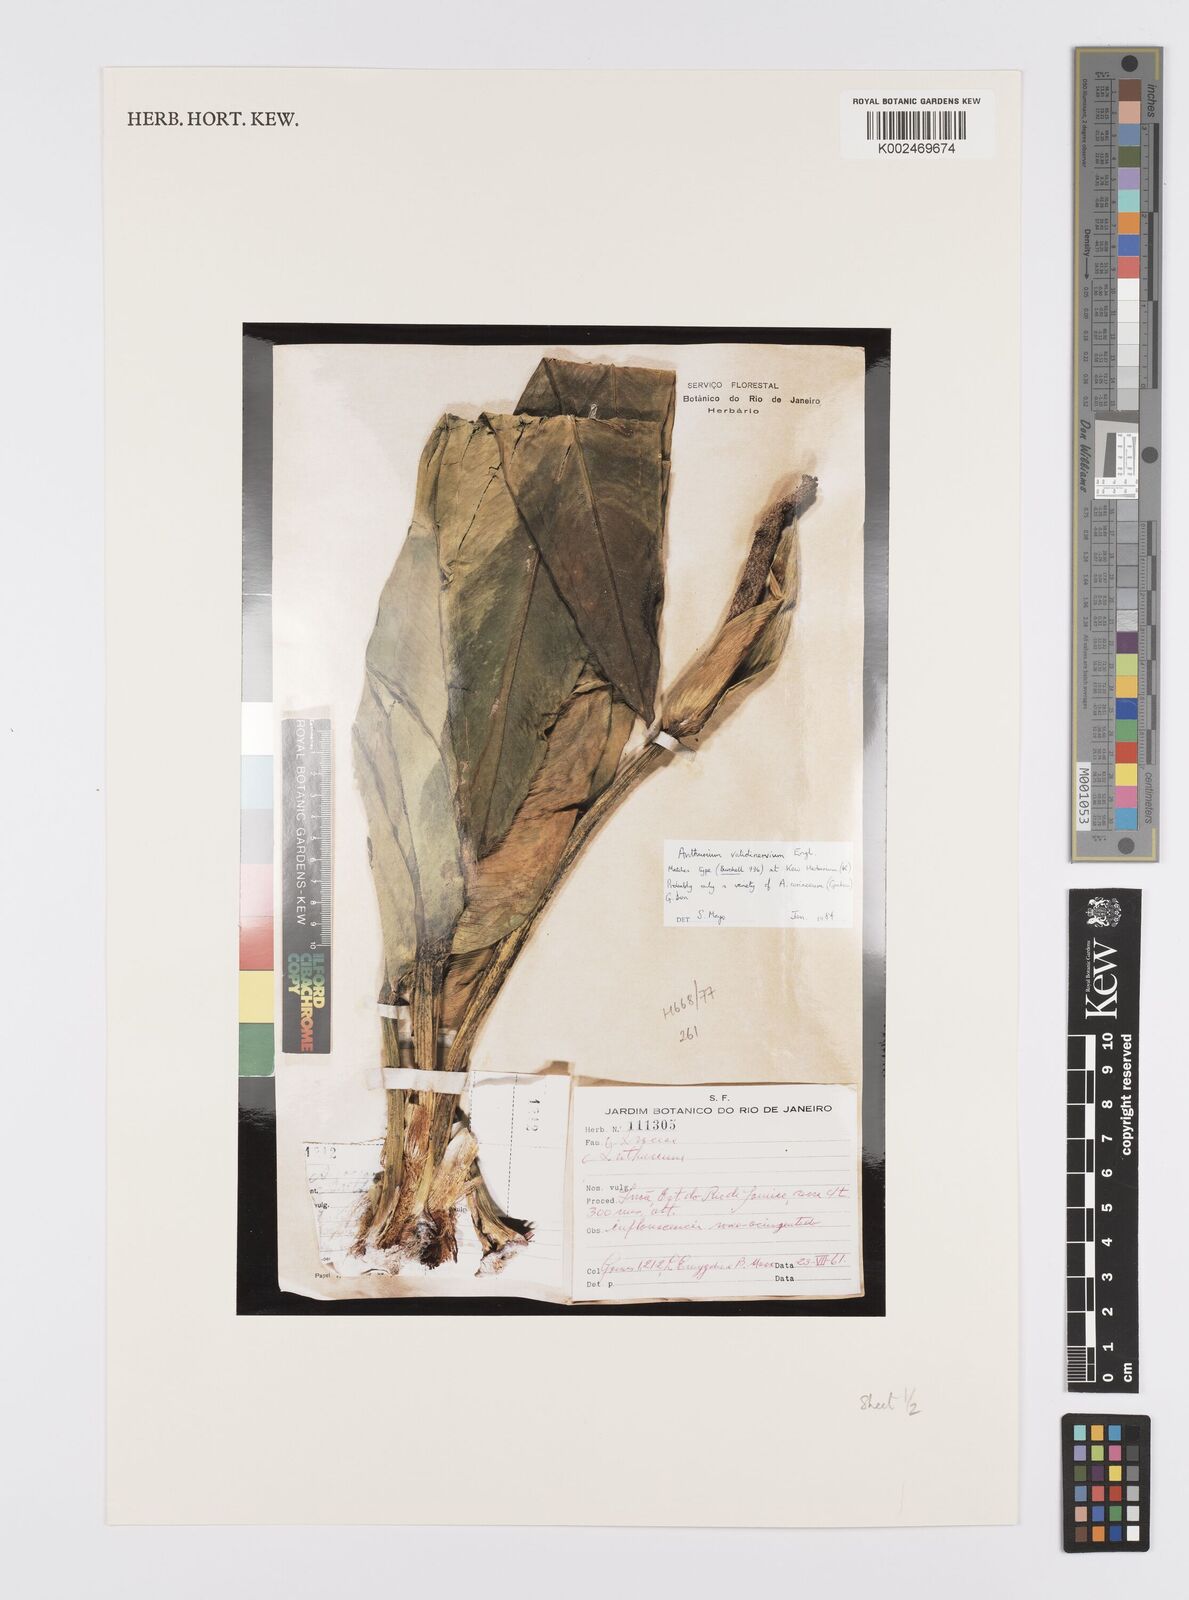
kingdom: Plantae
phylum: Tracheophyta
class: Liliopsida
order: Alismatales
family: Araceae
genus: Anthurium
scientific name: Anthurium validinervium
